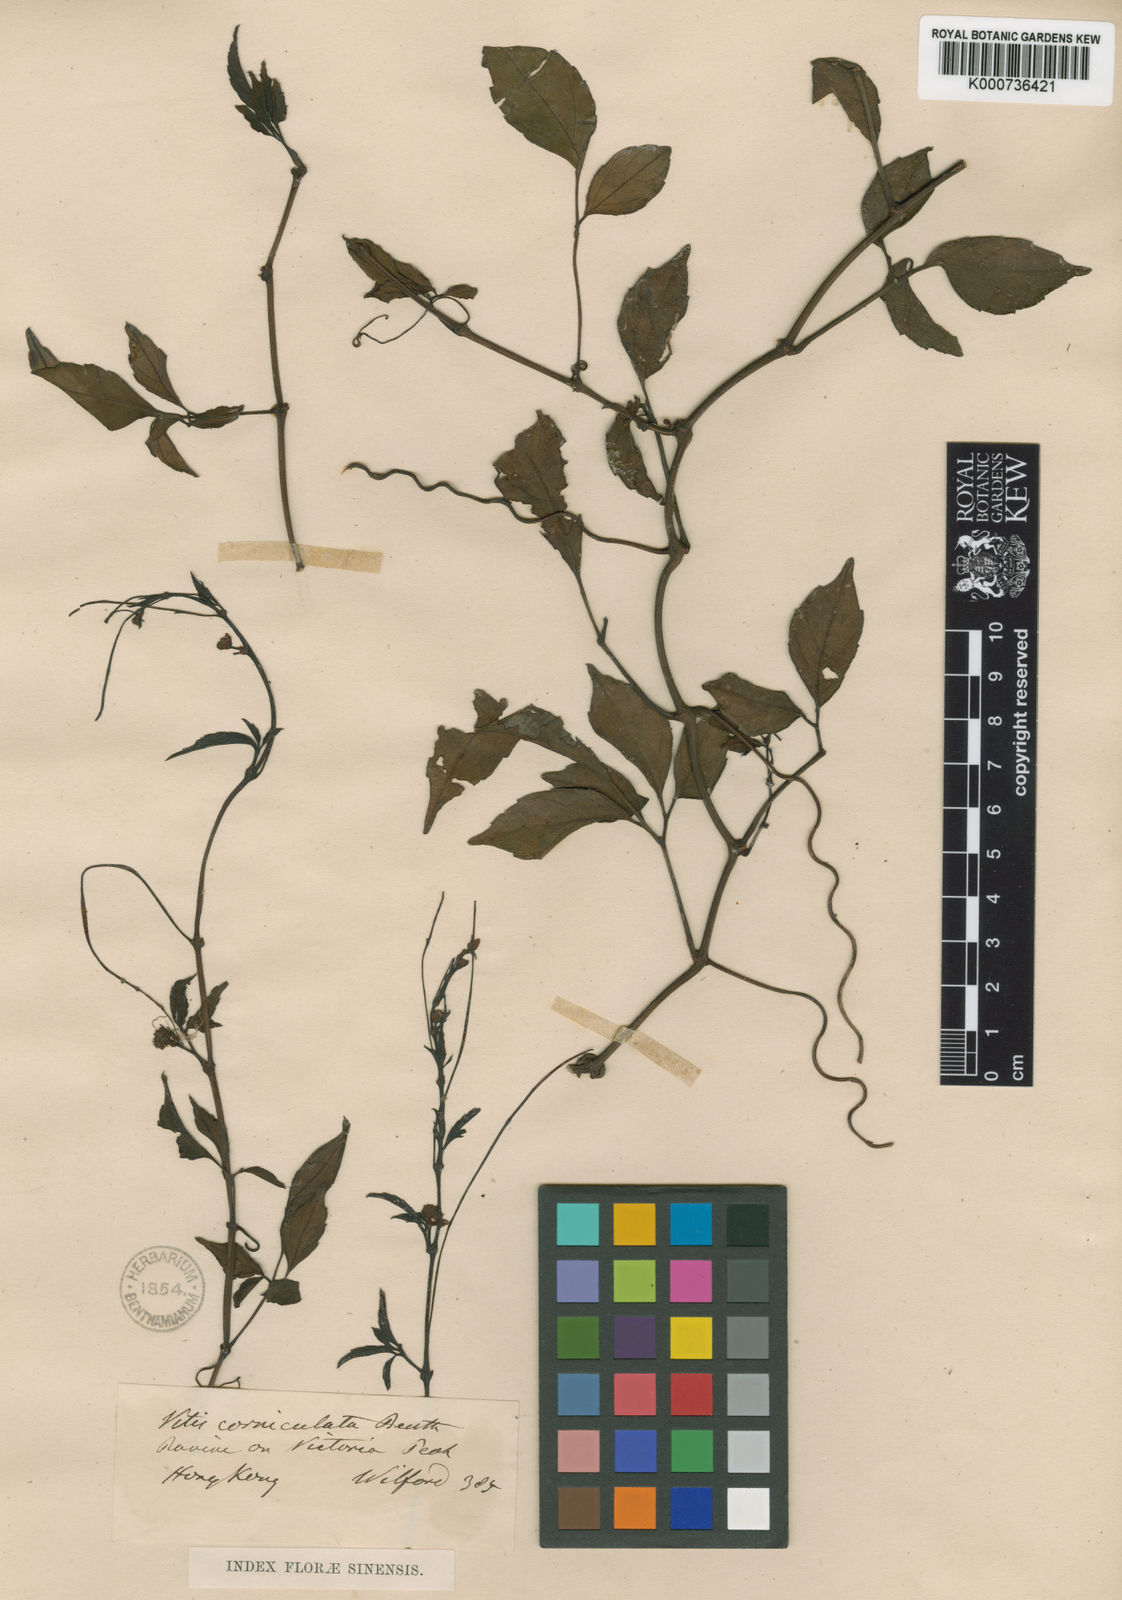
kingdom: Plantae
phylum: Tracheophyta
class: Magnoliopsida
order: Vitales
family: Vitaceae
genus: Causonis
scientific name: Causonis corniculata
